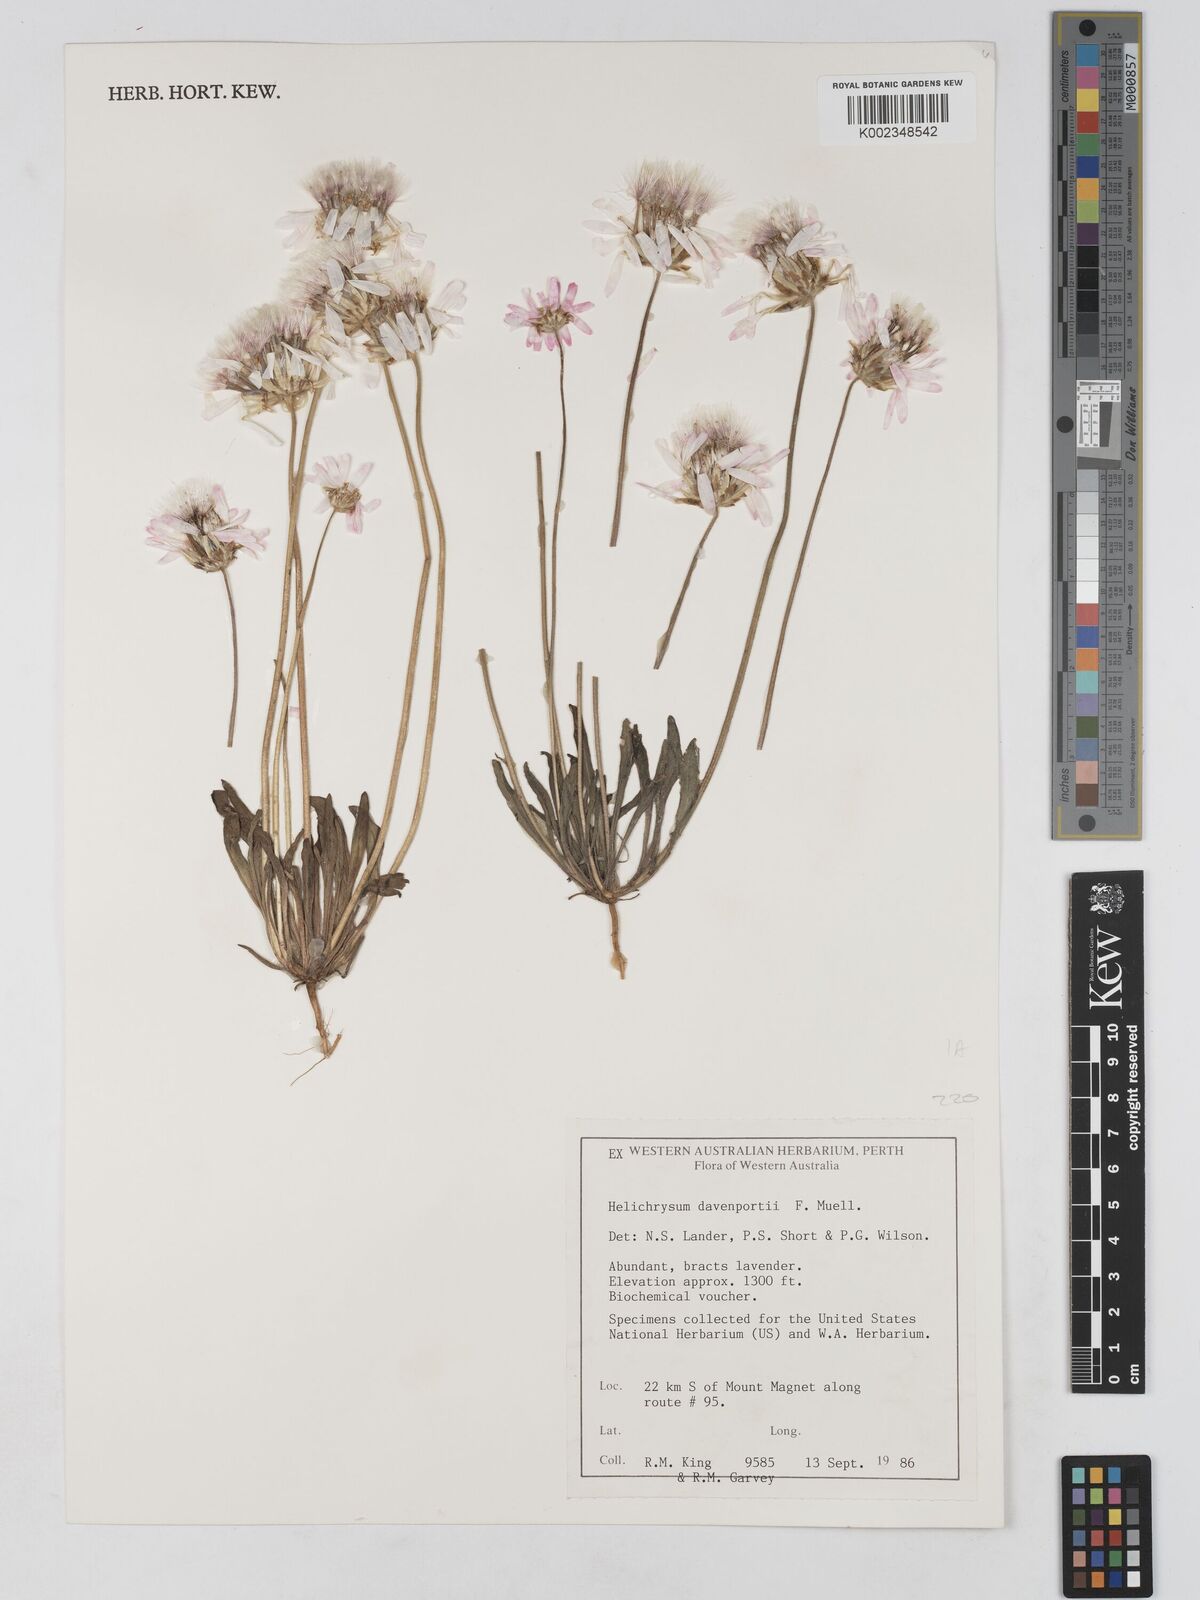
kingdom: Plantae
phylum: Tracheophyta
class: Magnoliopsida
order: Asterales
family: Asteraceae
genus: Lawrencella
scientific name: Lawrencella davenportii
